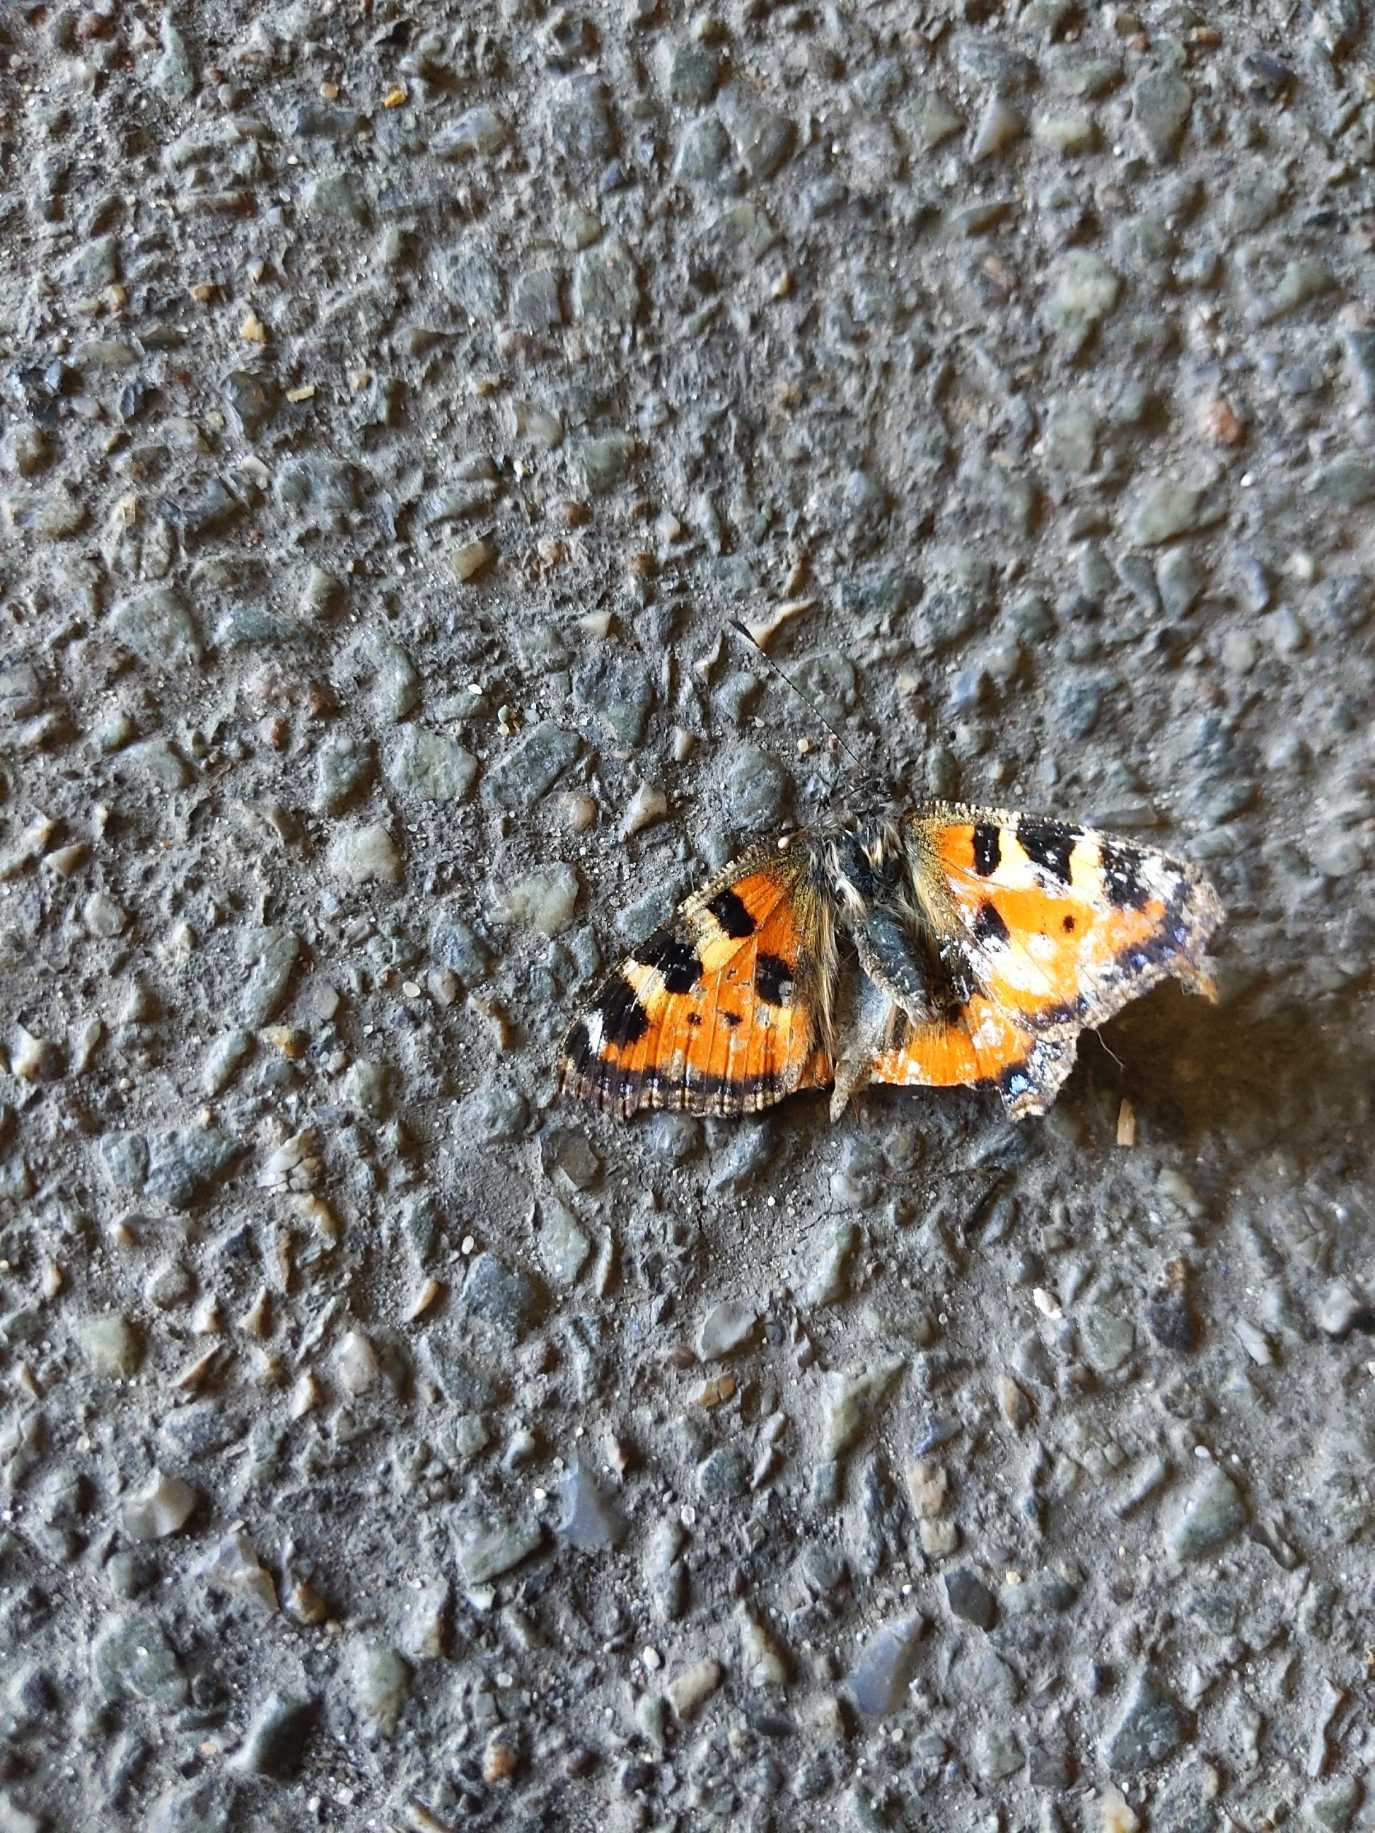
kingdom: Animalia
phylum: Arthropoda
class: Insecta
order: Lepidoptera
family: Nymphalidae
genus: Aglais
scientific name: Aglais urticae
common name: Nældens takvinge
